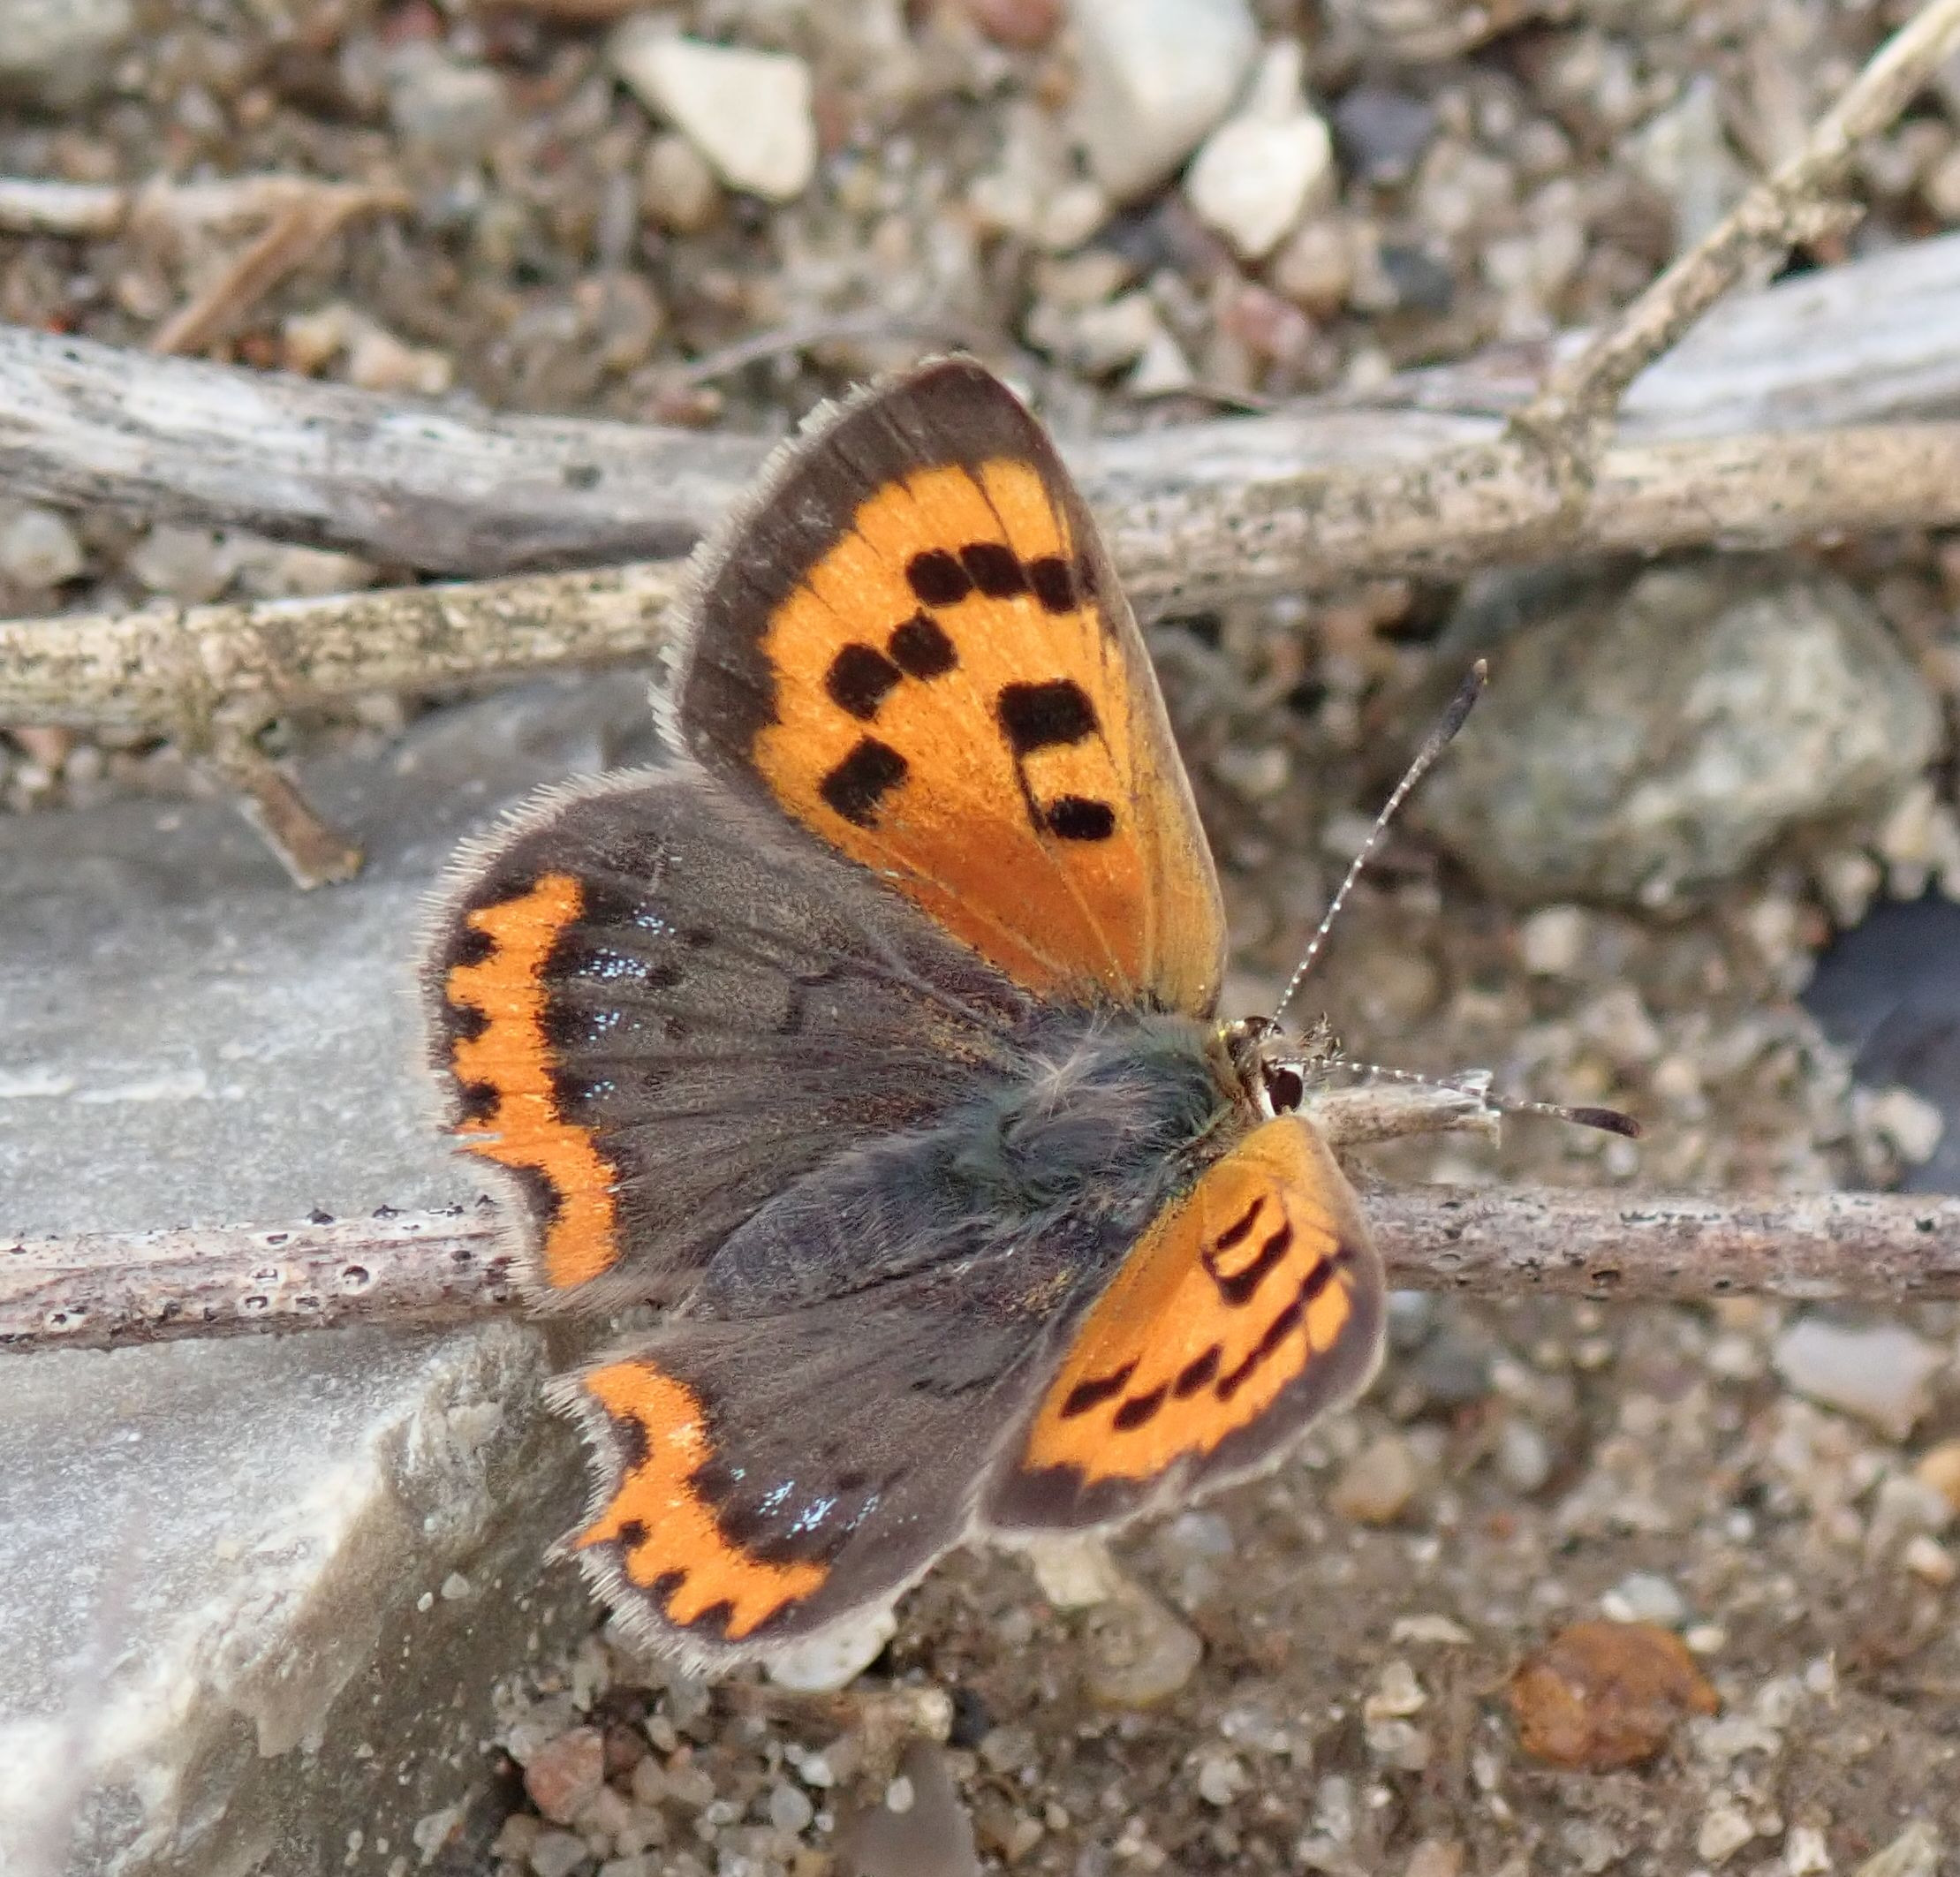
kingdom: Animalia
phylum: Arthropoda
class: Insecta
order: Lepidoptera
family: Lycaenidae
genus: Lycaena
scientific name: Lycaena phlaeas
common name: Lille ildfugl
